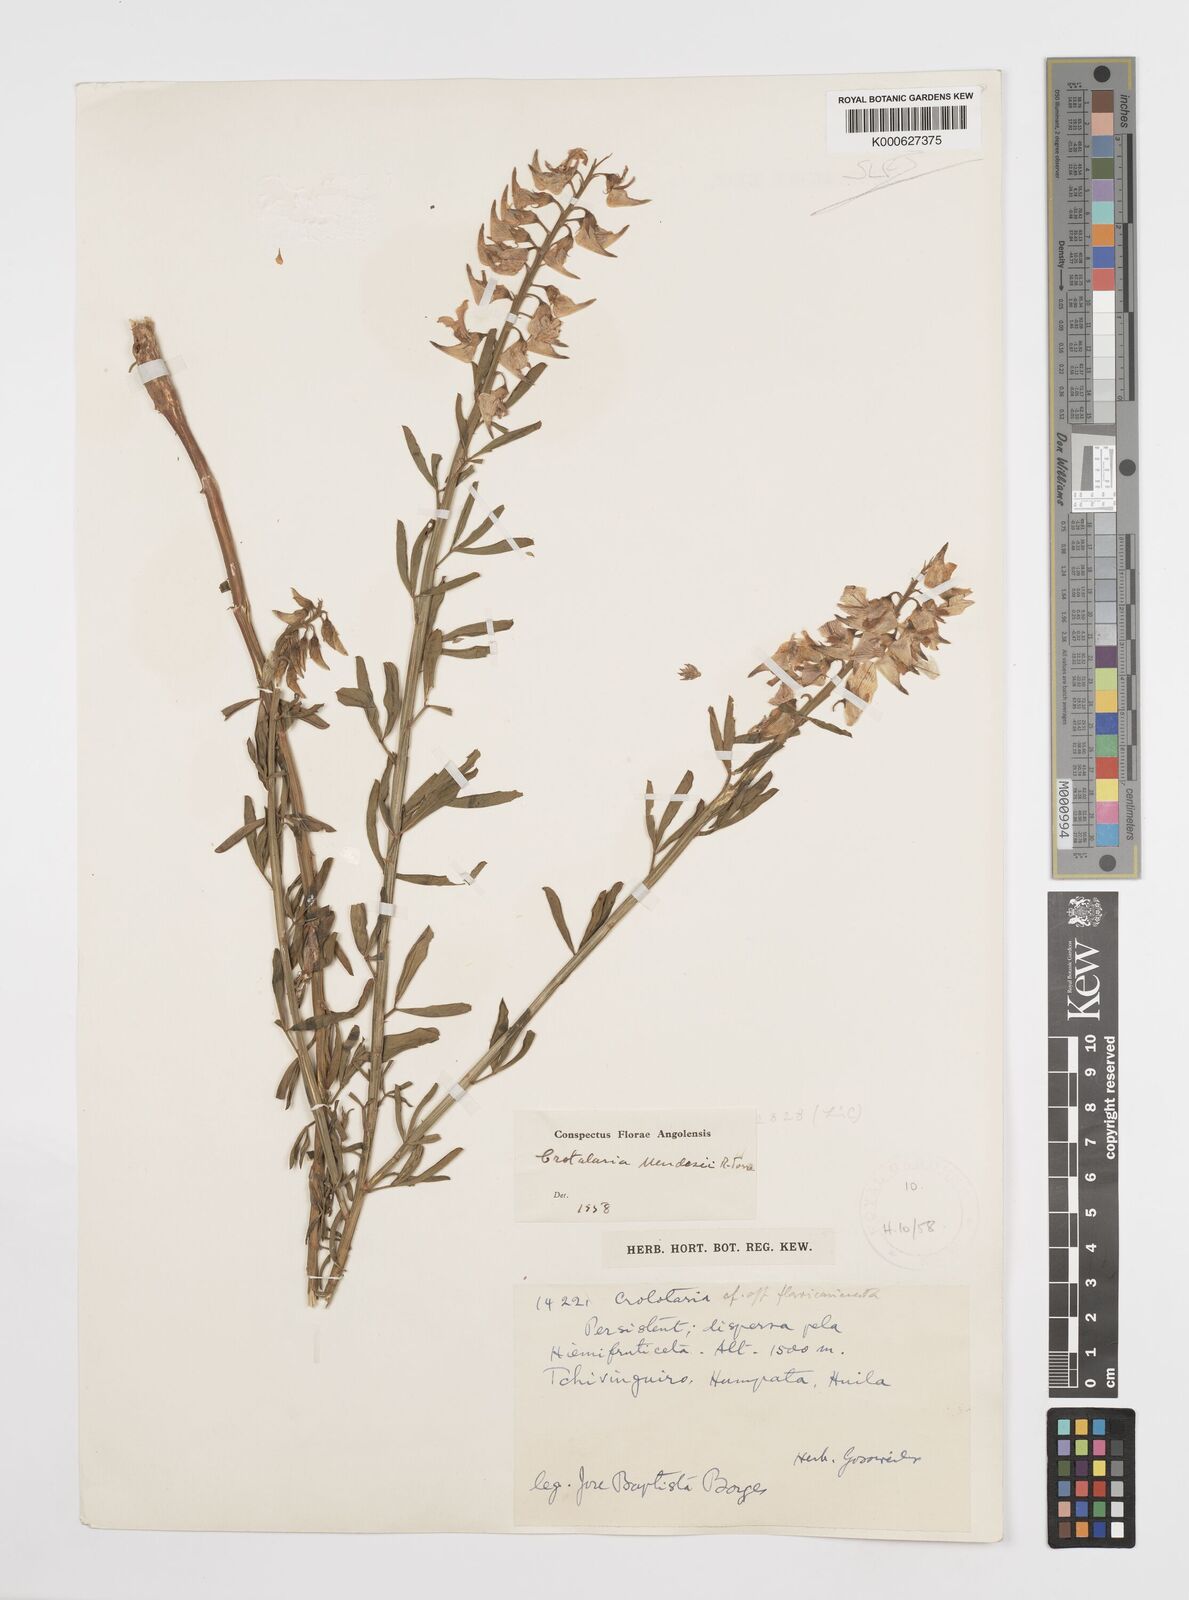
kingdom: Plantae
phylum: Tracheophyta
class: Magnoliopsida
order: Fabales
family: Fabaceae
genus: Crotalaria
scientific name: Crotalaria mendesii
